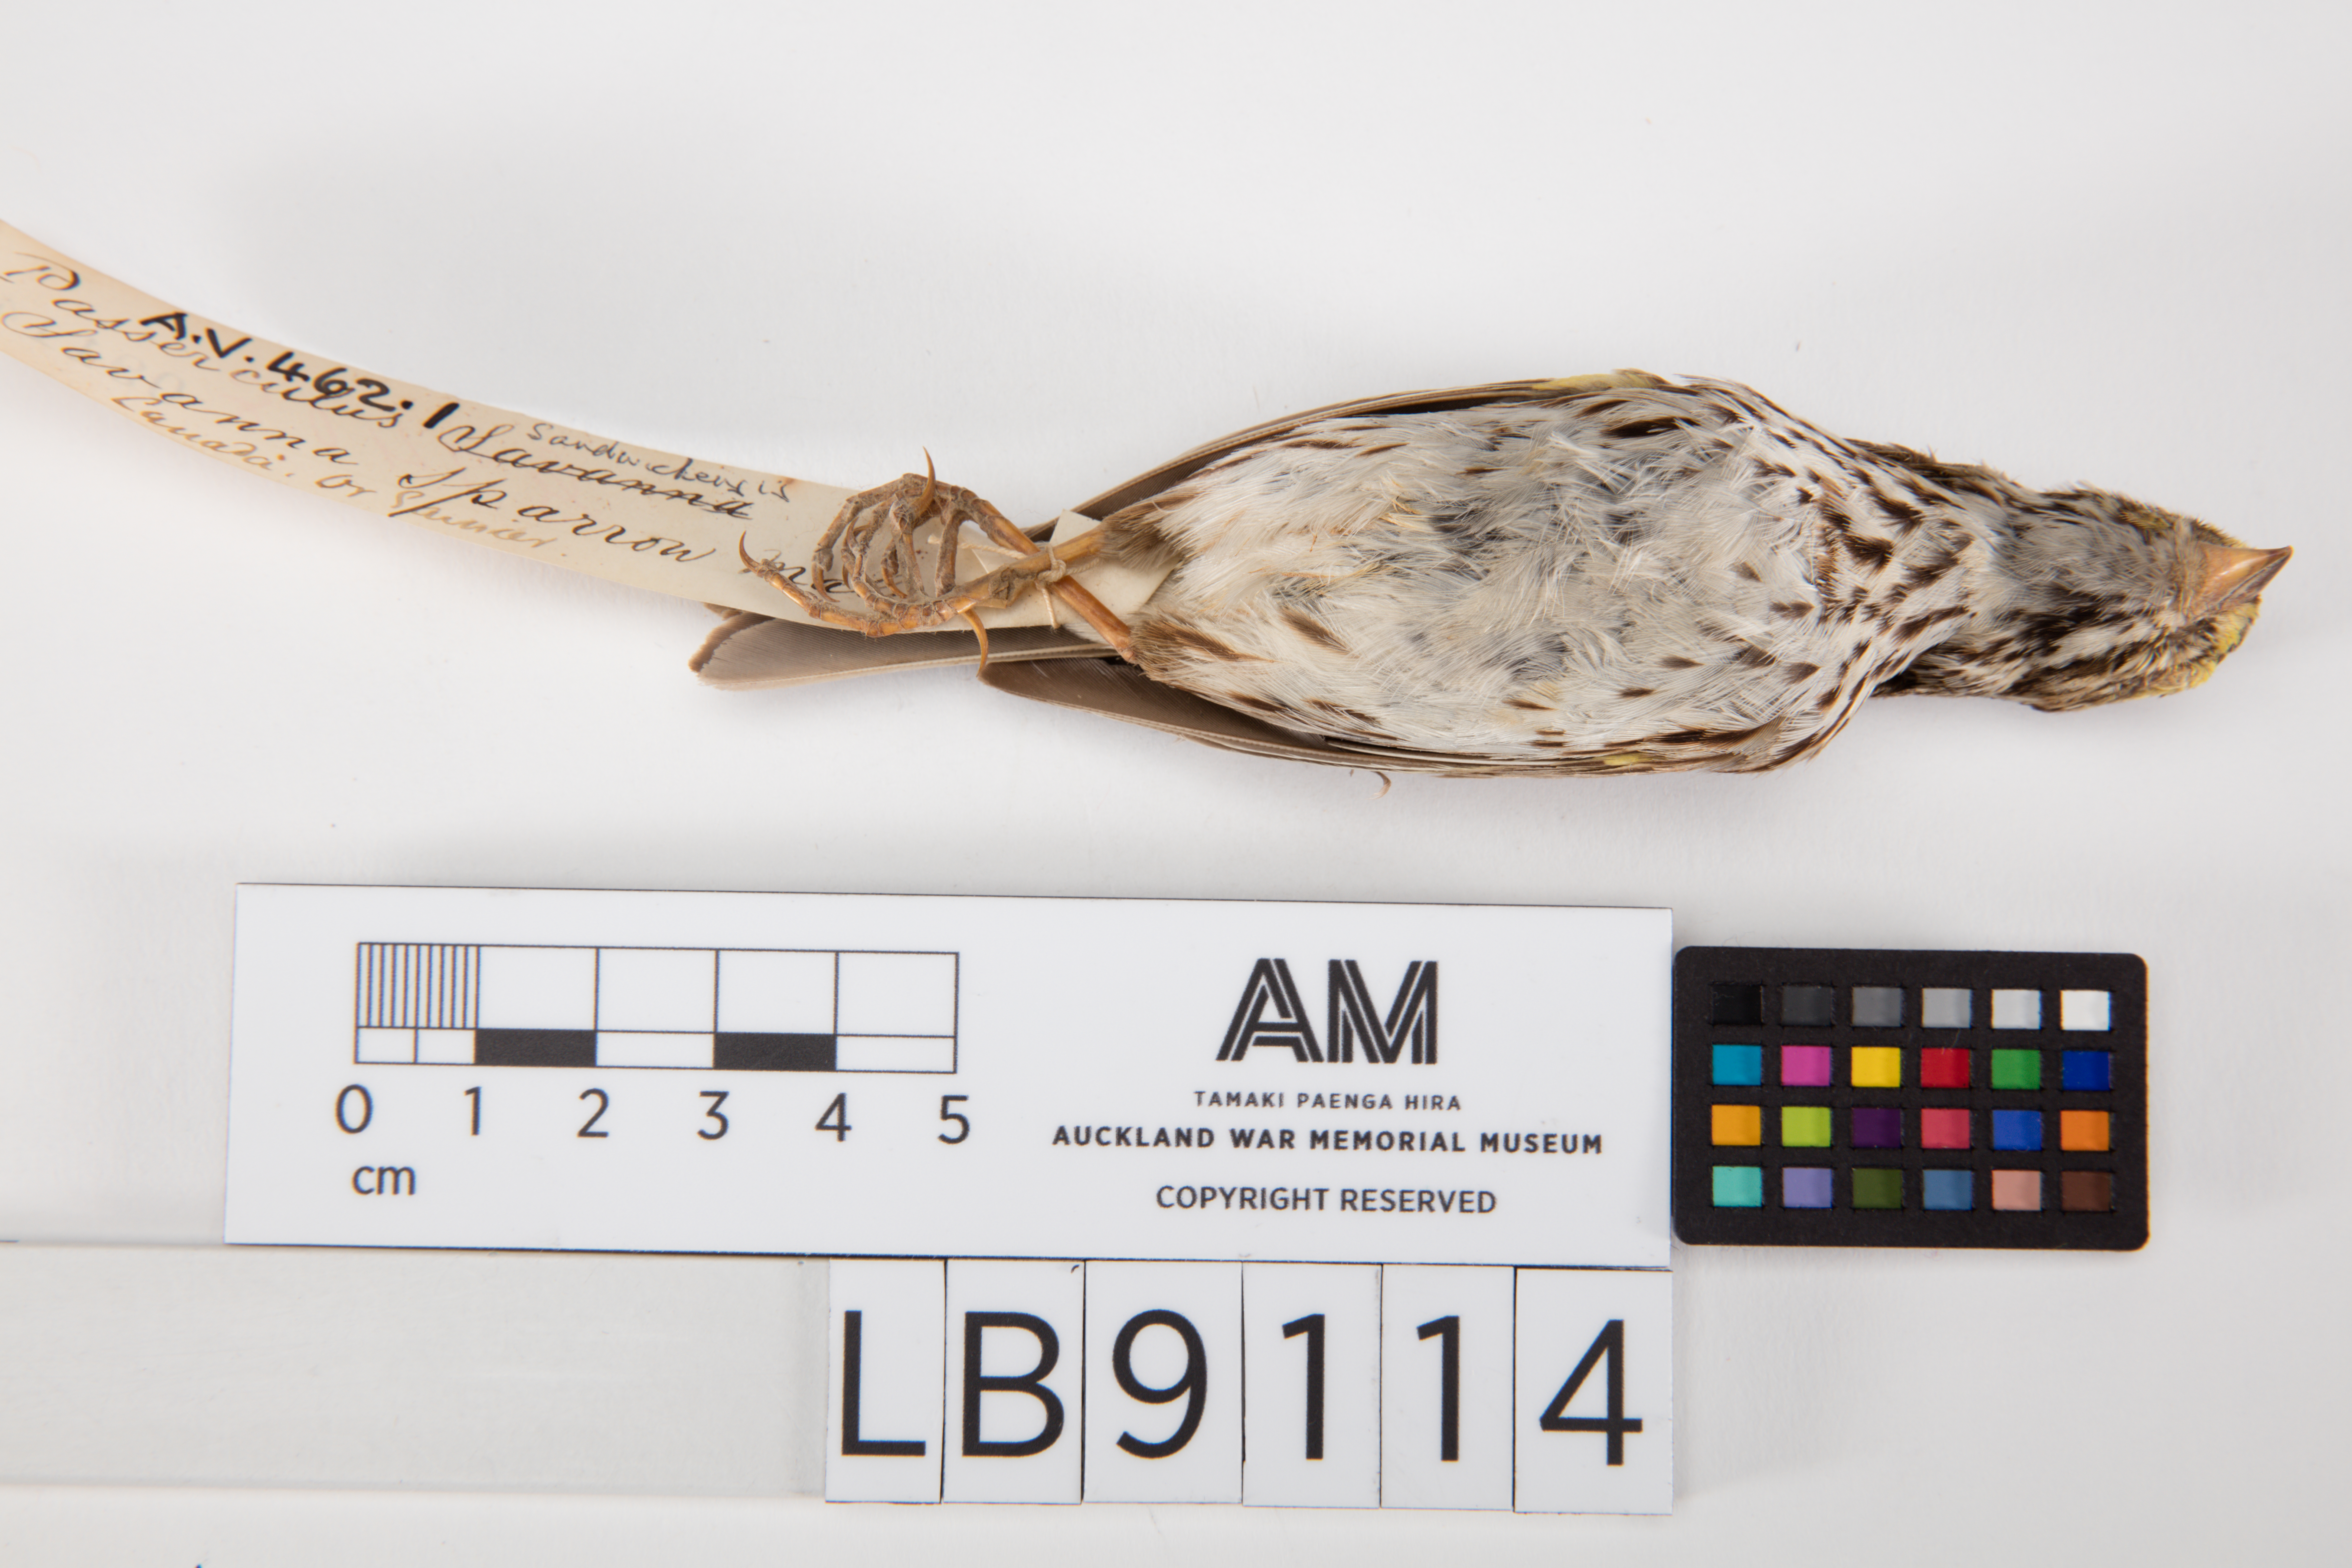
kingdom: Animalia
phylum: Chordata
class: Aves
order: Passeriformes
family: Passerellidae
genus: Passerculus
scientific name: Passerculus sandwichensis
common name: Savannah sparrow
